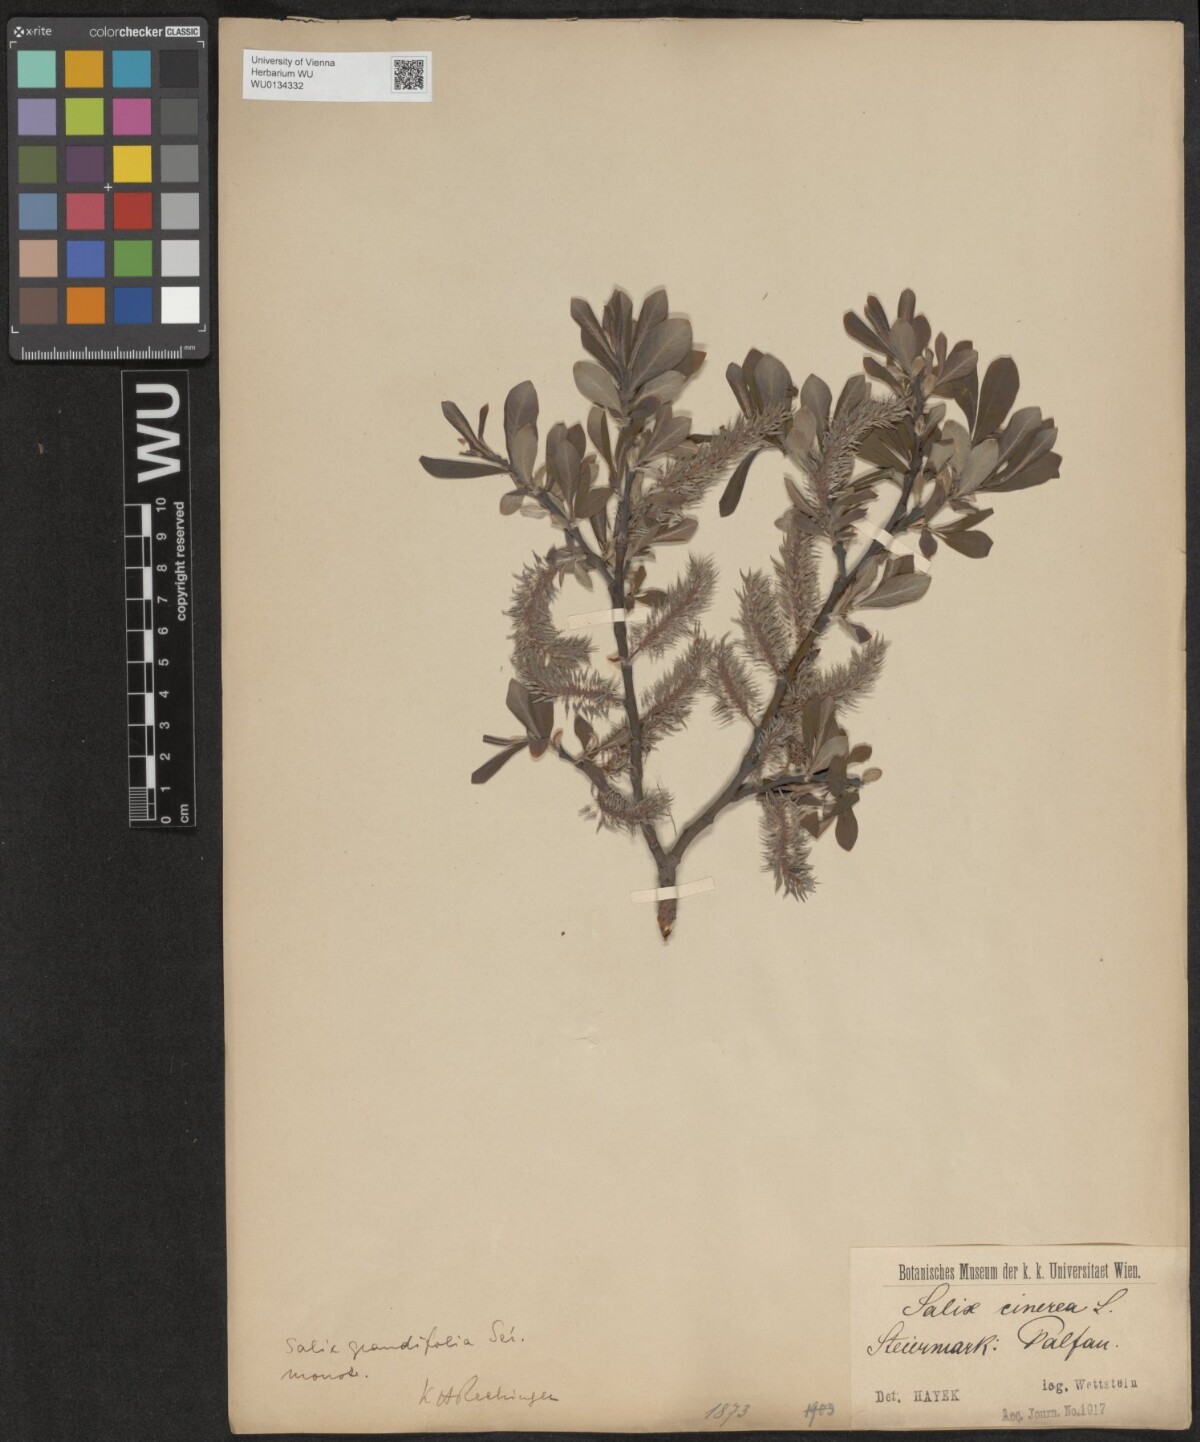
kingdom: Plantae
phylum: Tracheophyta
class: Magnoliopsida
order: Malpighiales
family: Salicaceae
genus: Salix
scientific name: Salix appendiculata
